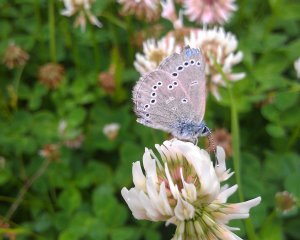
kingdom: Animalia
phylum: Arthropoda
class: Insecta
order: Lepidoptera
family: Lycaenidae
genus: Glaucopsyche
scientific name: Glaucopsyche lygdamus
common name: Silvery Blue
